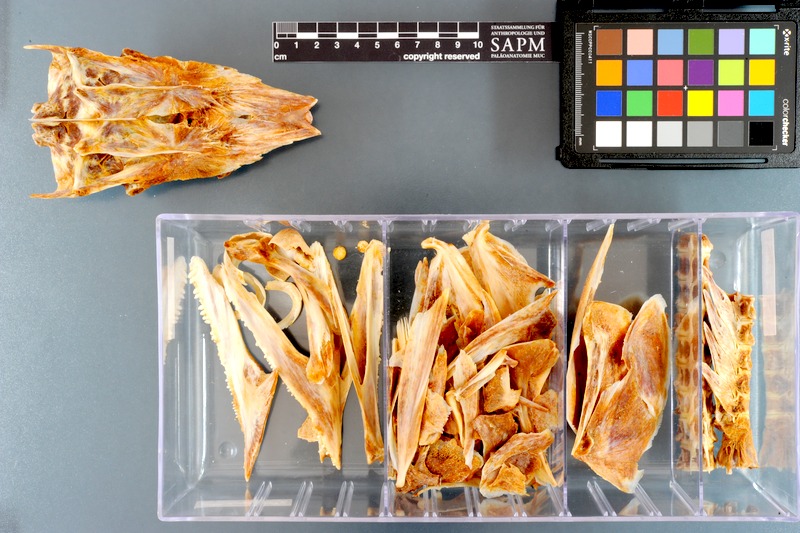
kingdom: Animalia
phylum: Chordata
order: Perciformes
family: Scombridae
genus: Acanthocybium
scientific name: Acanthocybium solandri
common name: Wahoo
